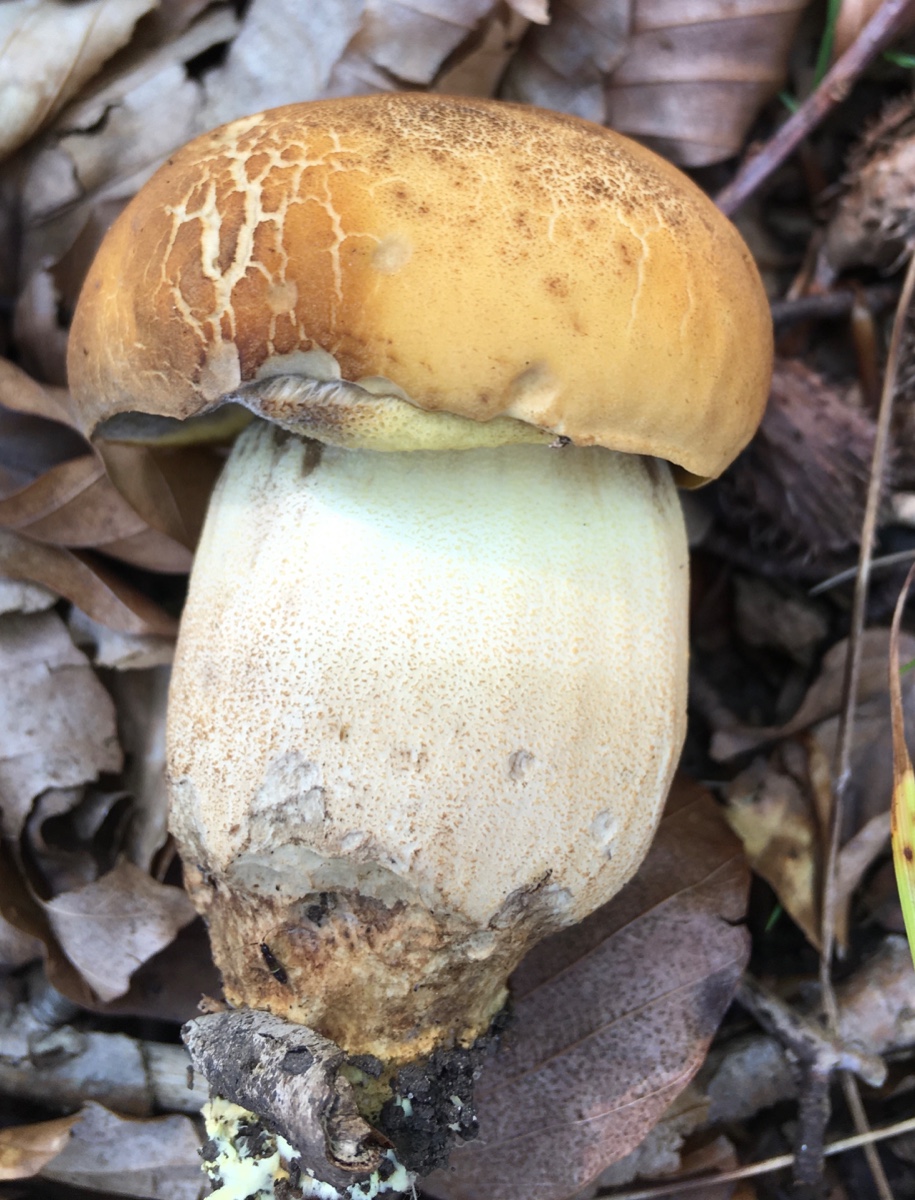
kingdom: Fungi
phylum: Basidiomycota
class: Agaricomycetes
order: Boletales
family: Boletaceae
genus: Leccinellum
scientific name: Leccinellum crocipodium
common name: gul skælrørhat
